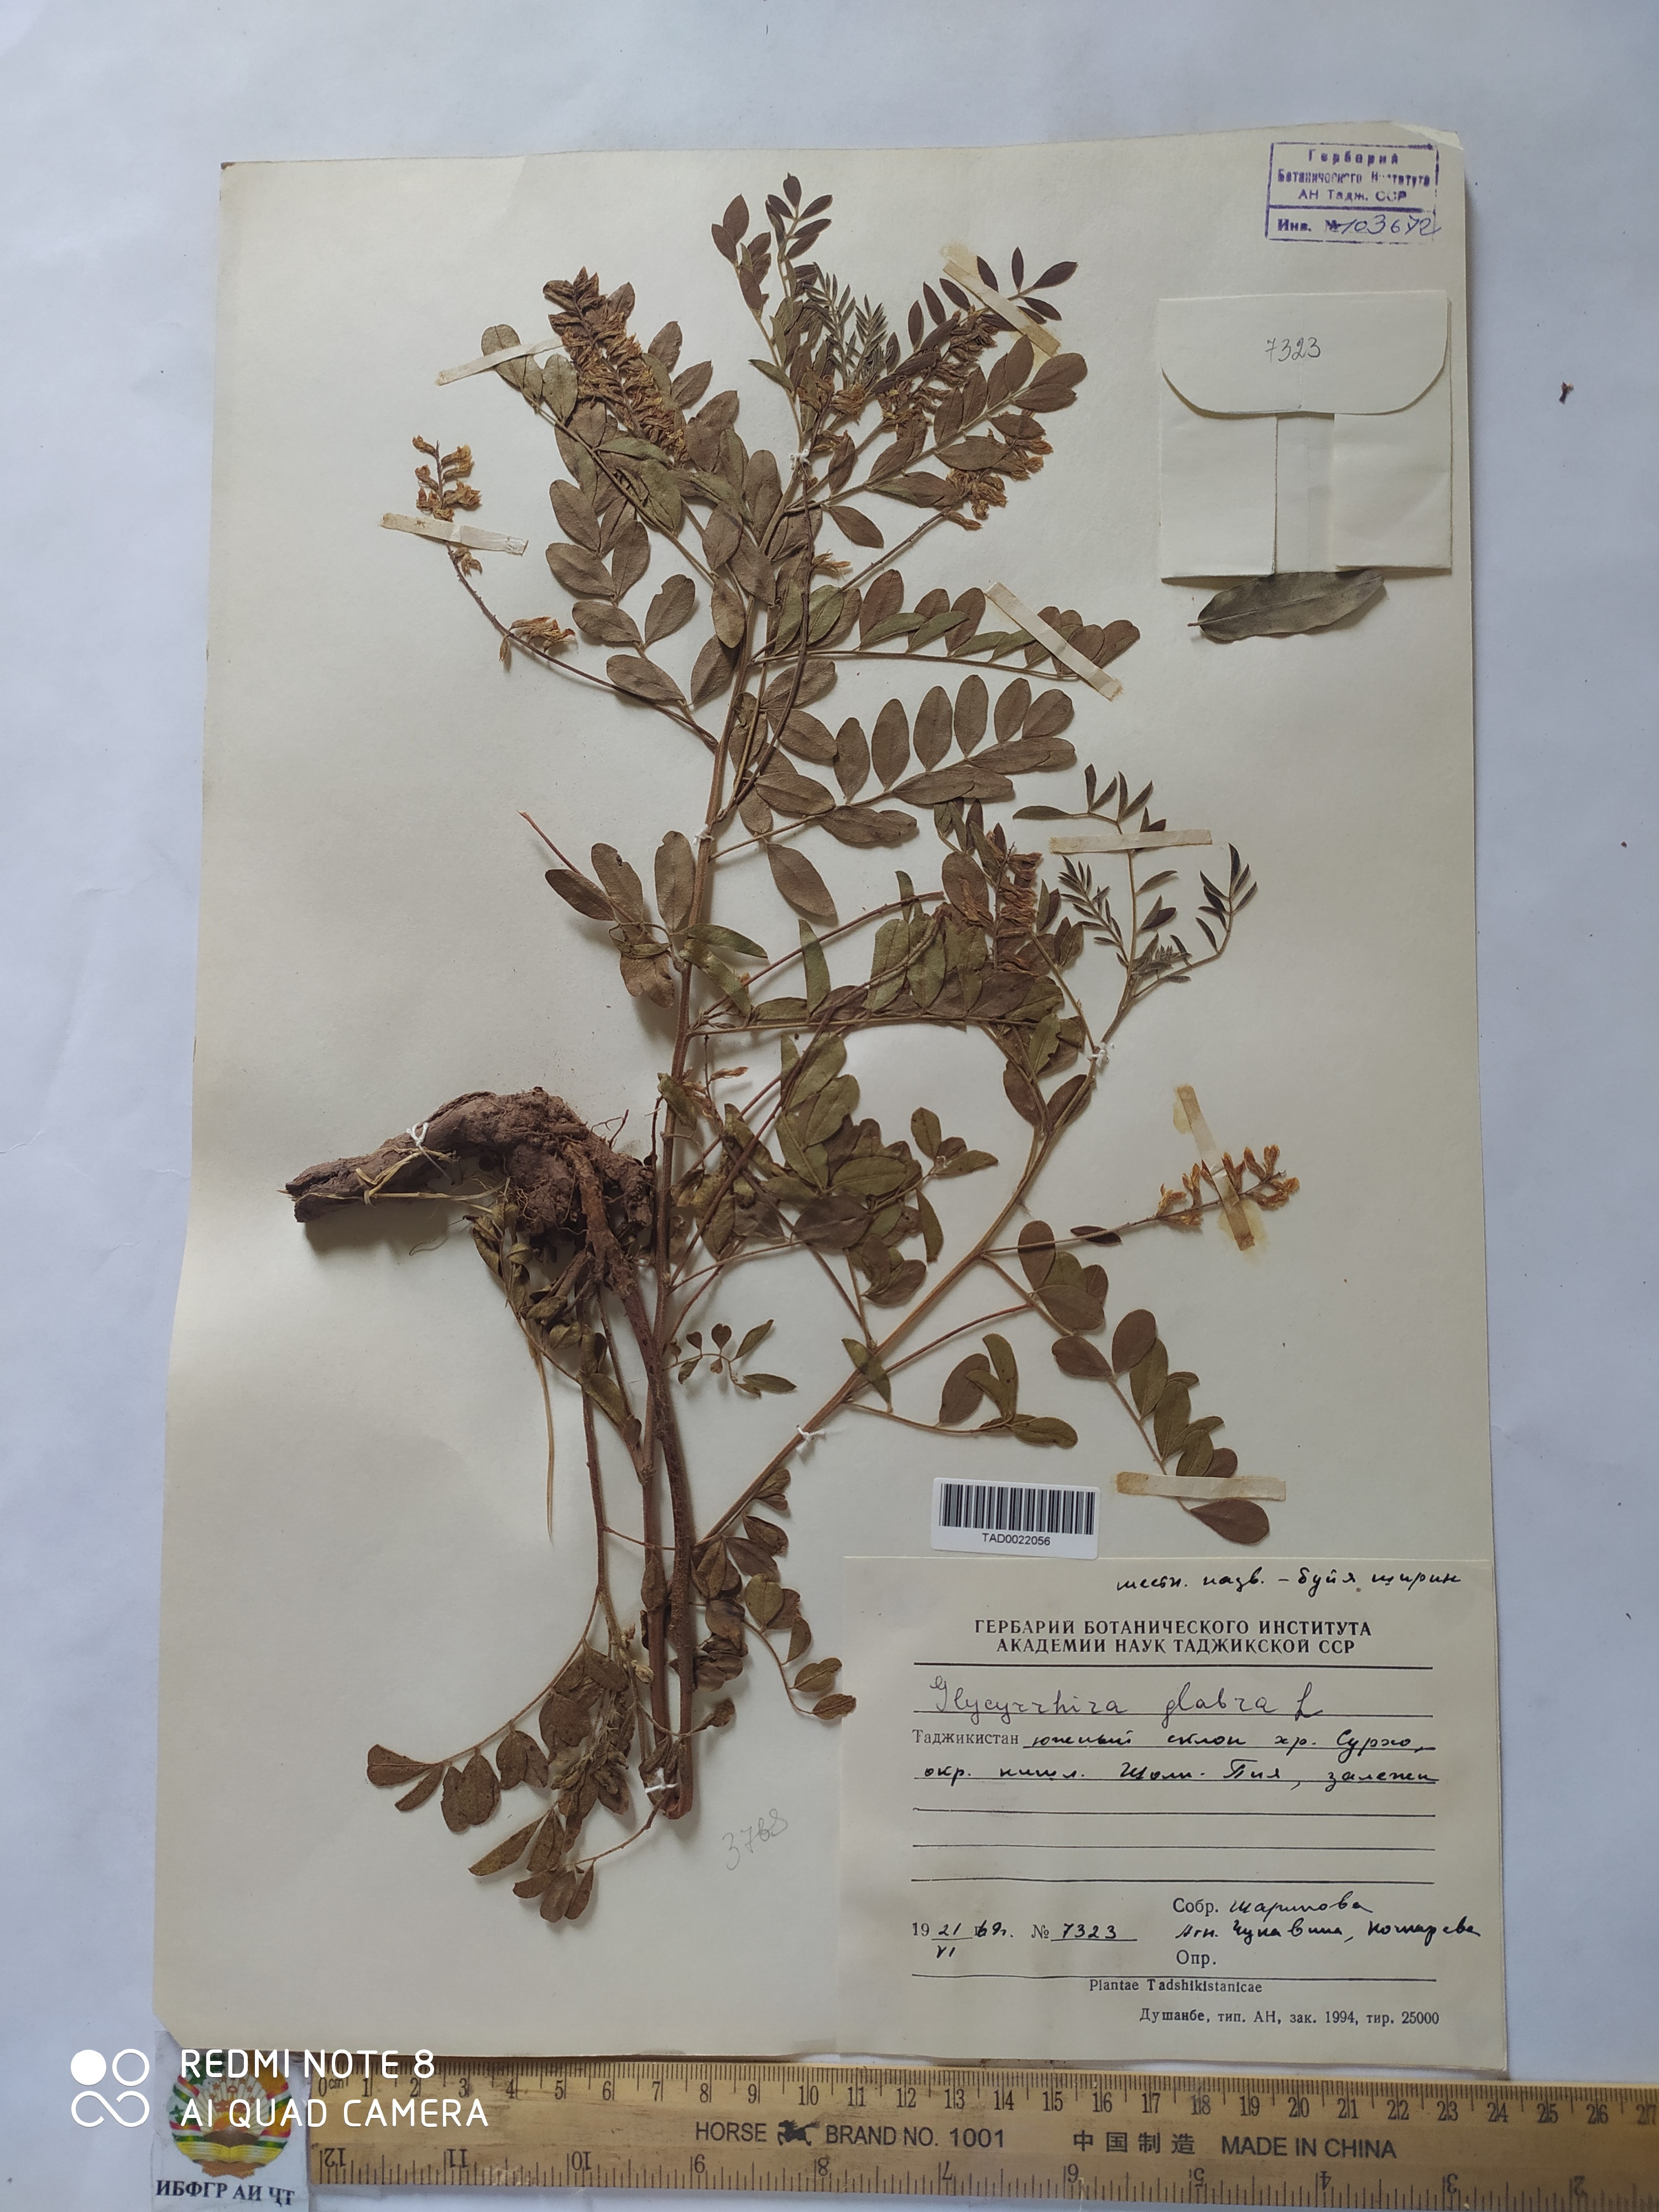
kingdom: Plantae
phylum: Tracheophyta
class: Magnoliopsida
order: Fabales
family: Fabaceae
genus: Glycyrrhiza
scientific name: Glycyrrhiza glabra
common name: Liquorice
